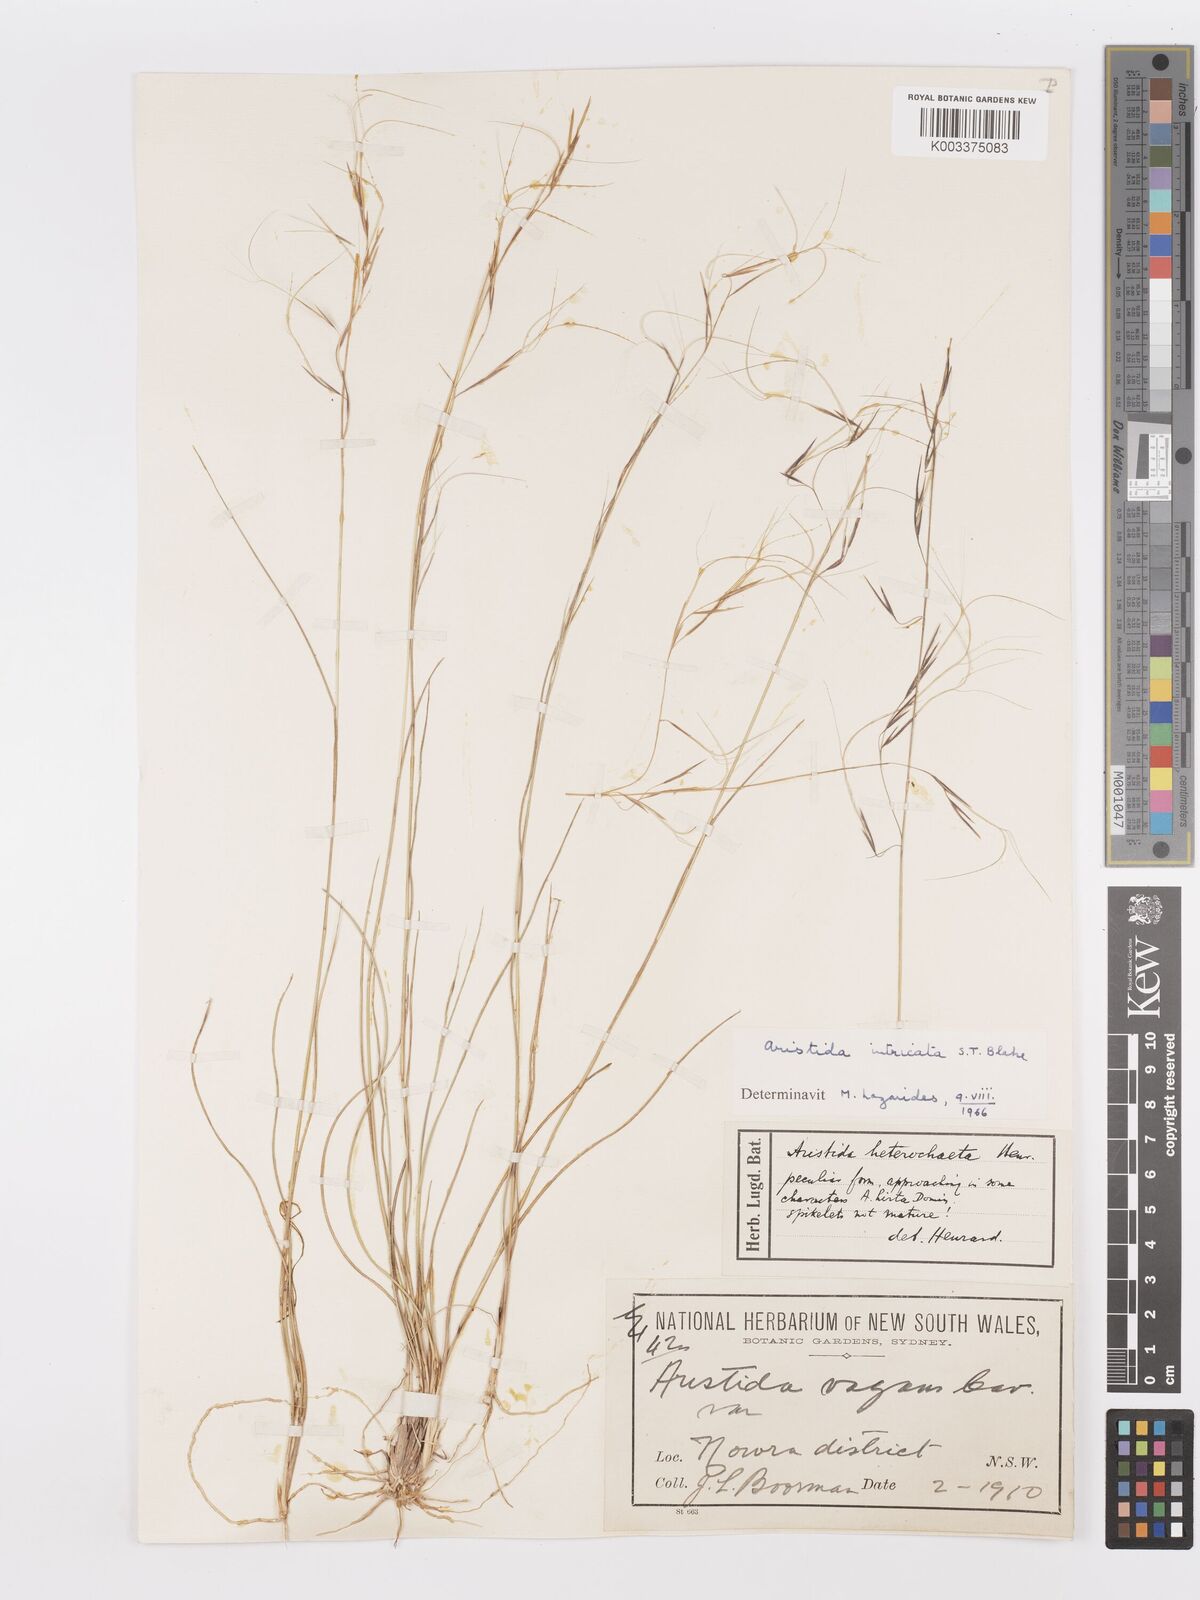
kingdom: Plantae
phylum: Tracheophyta
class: Liliopsida
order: Poales
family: Poaceae
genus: Aristida
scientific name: Aristida warburgii
